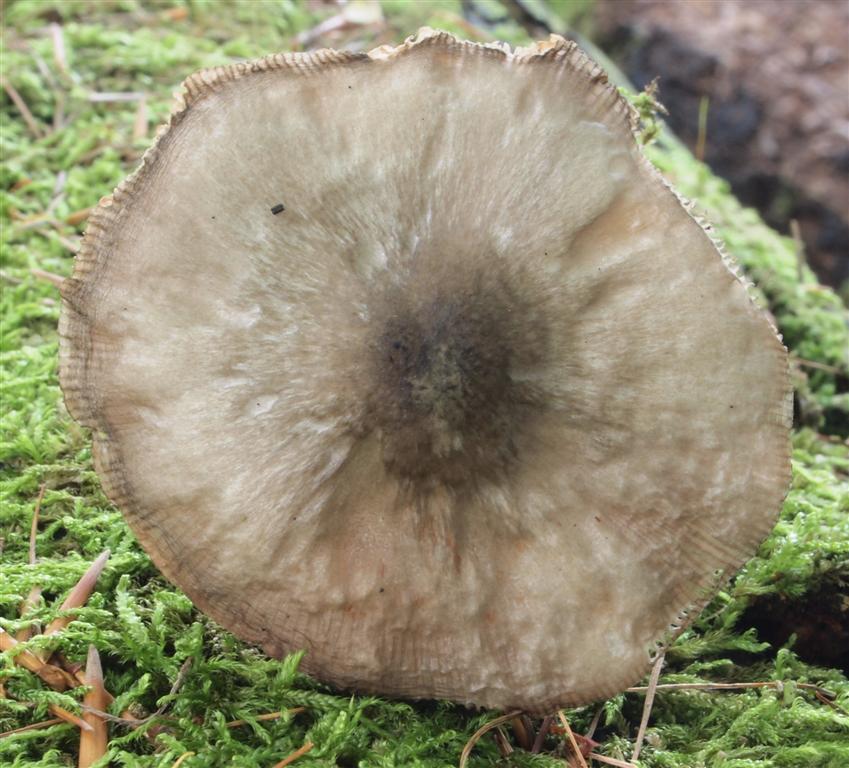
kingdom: Fungi
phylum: Basidiomycota
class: Agaricomycetes
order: Agaricales
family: Pluteaceae
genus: Pluteus
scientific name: Pluteus salicinus
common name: stiv skærmhat
